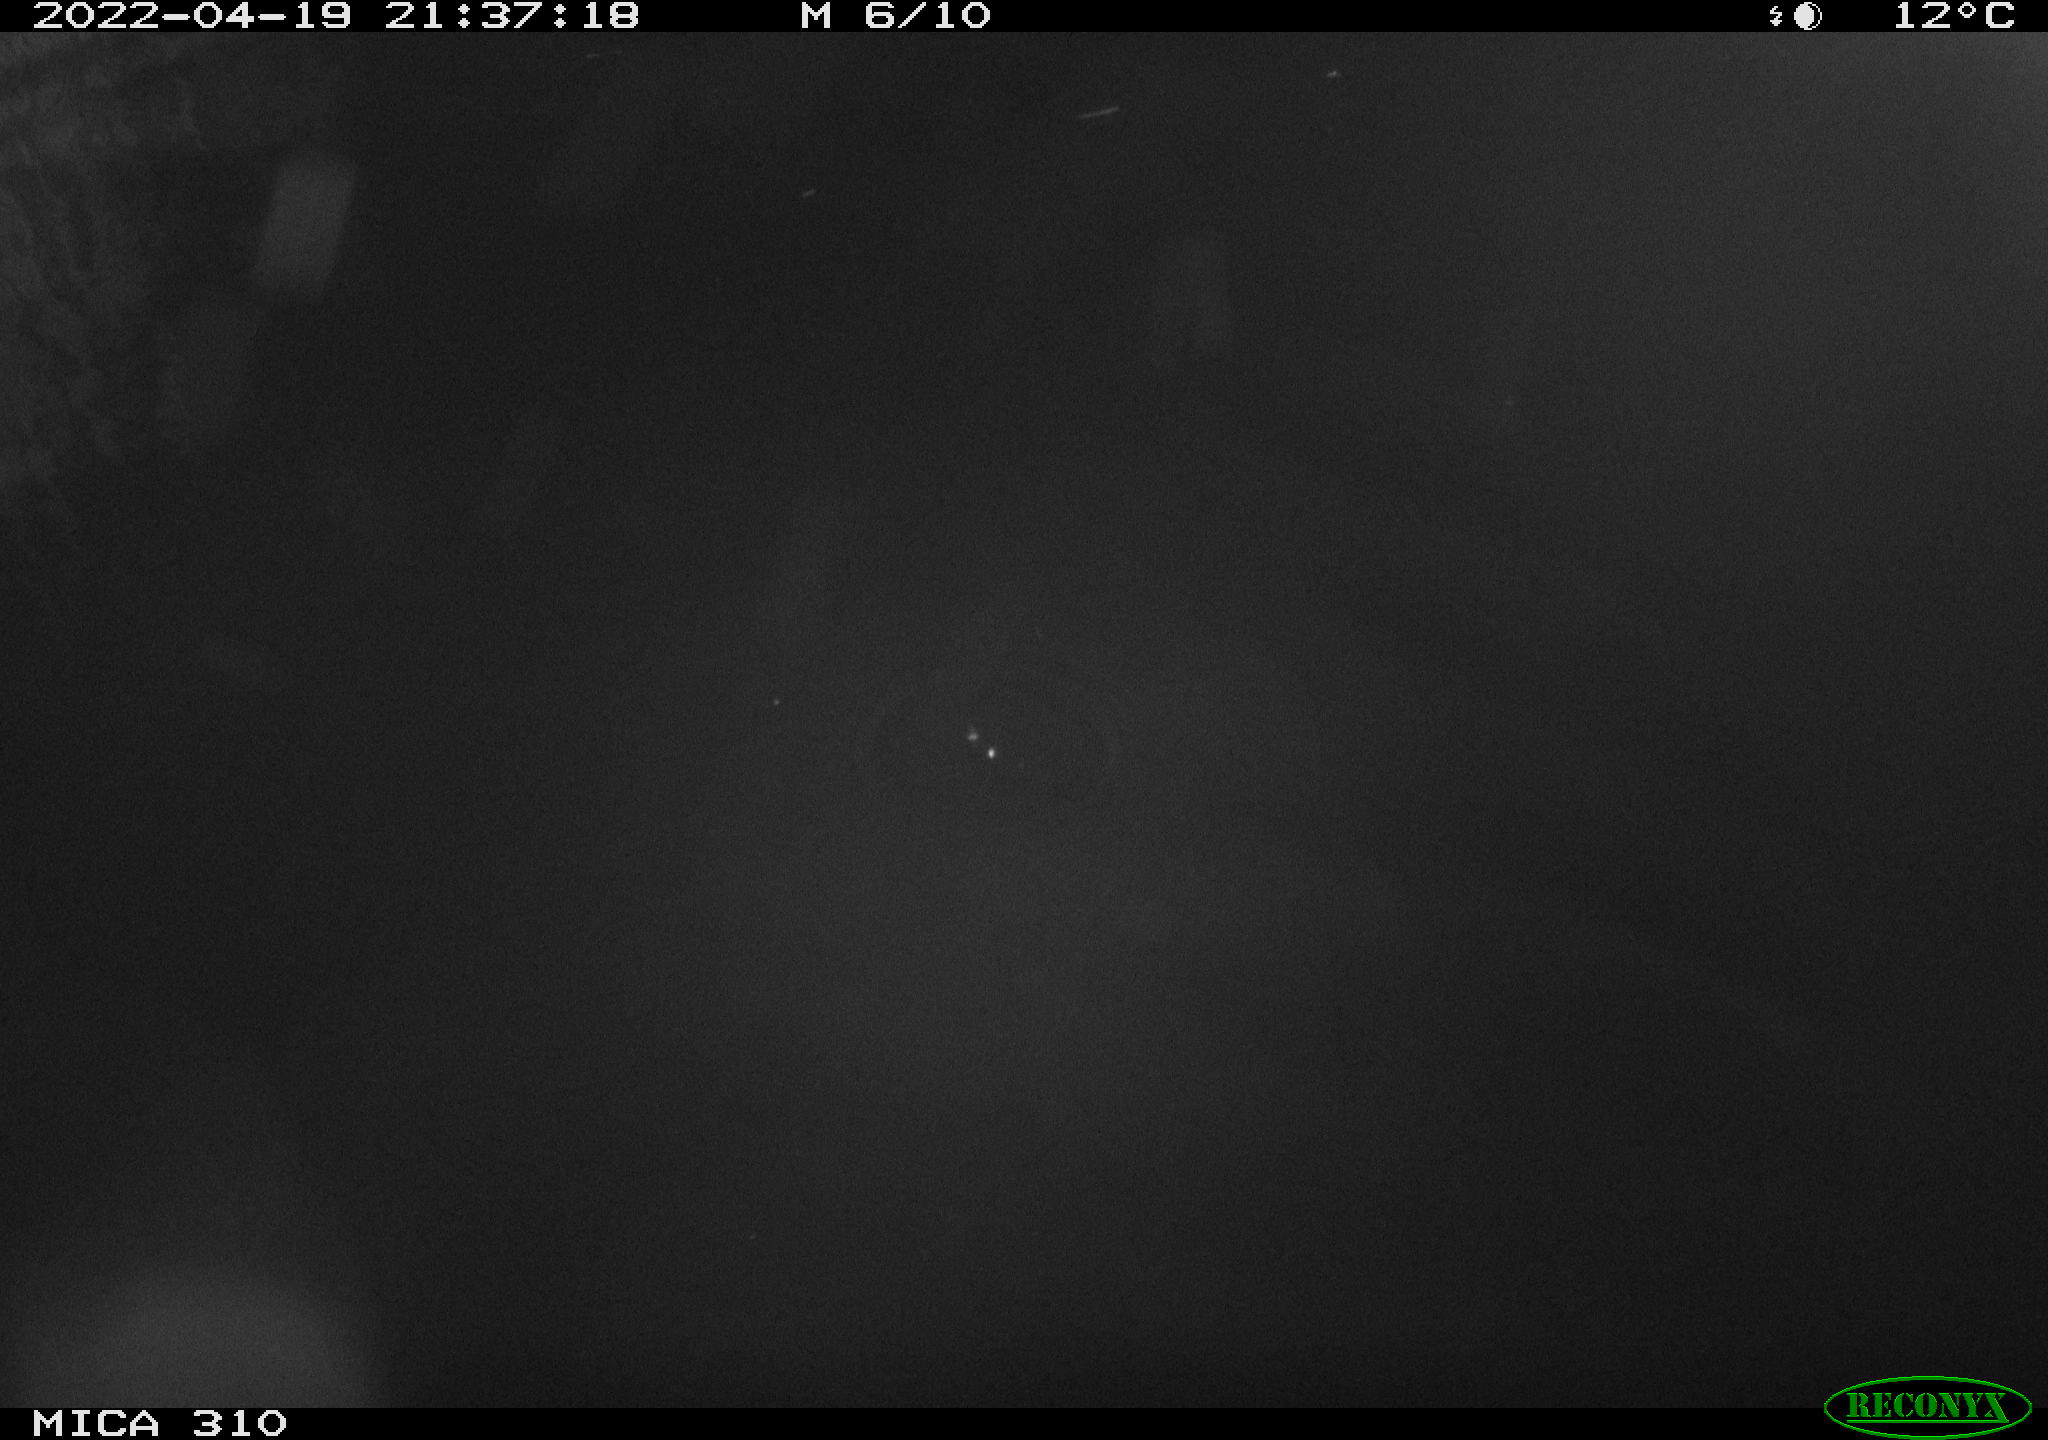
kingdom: Animalia
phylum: Chordata
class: Aves
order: Anseriformes
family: Anatidae
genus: Anas
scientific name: Anas platyrhynchos
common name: Mallard
